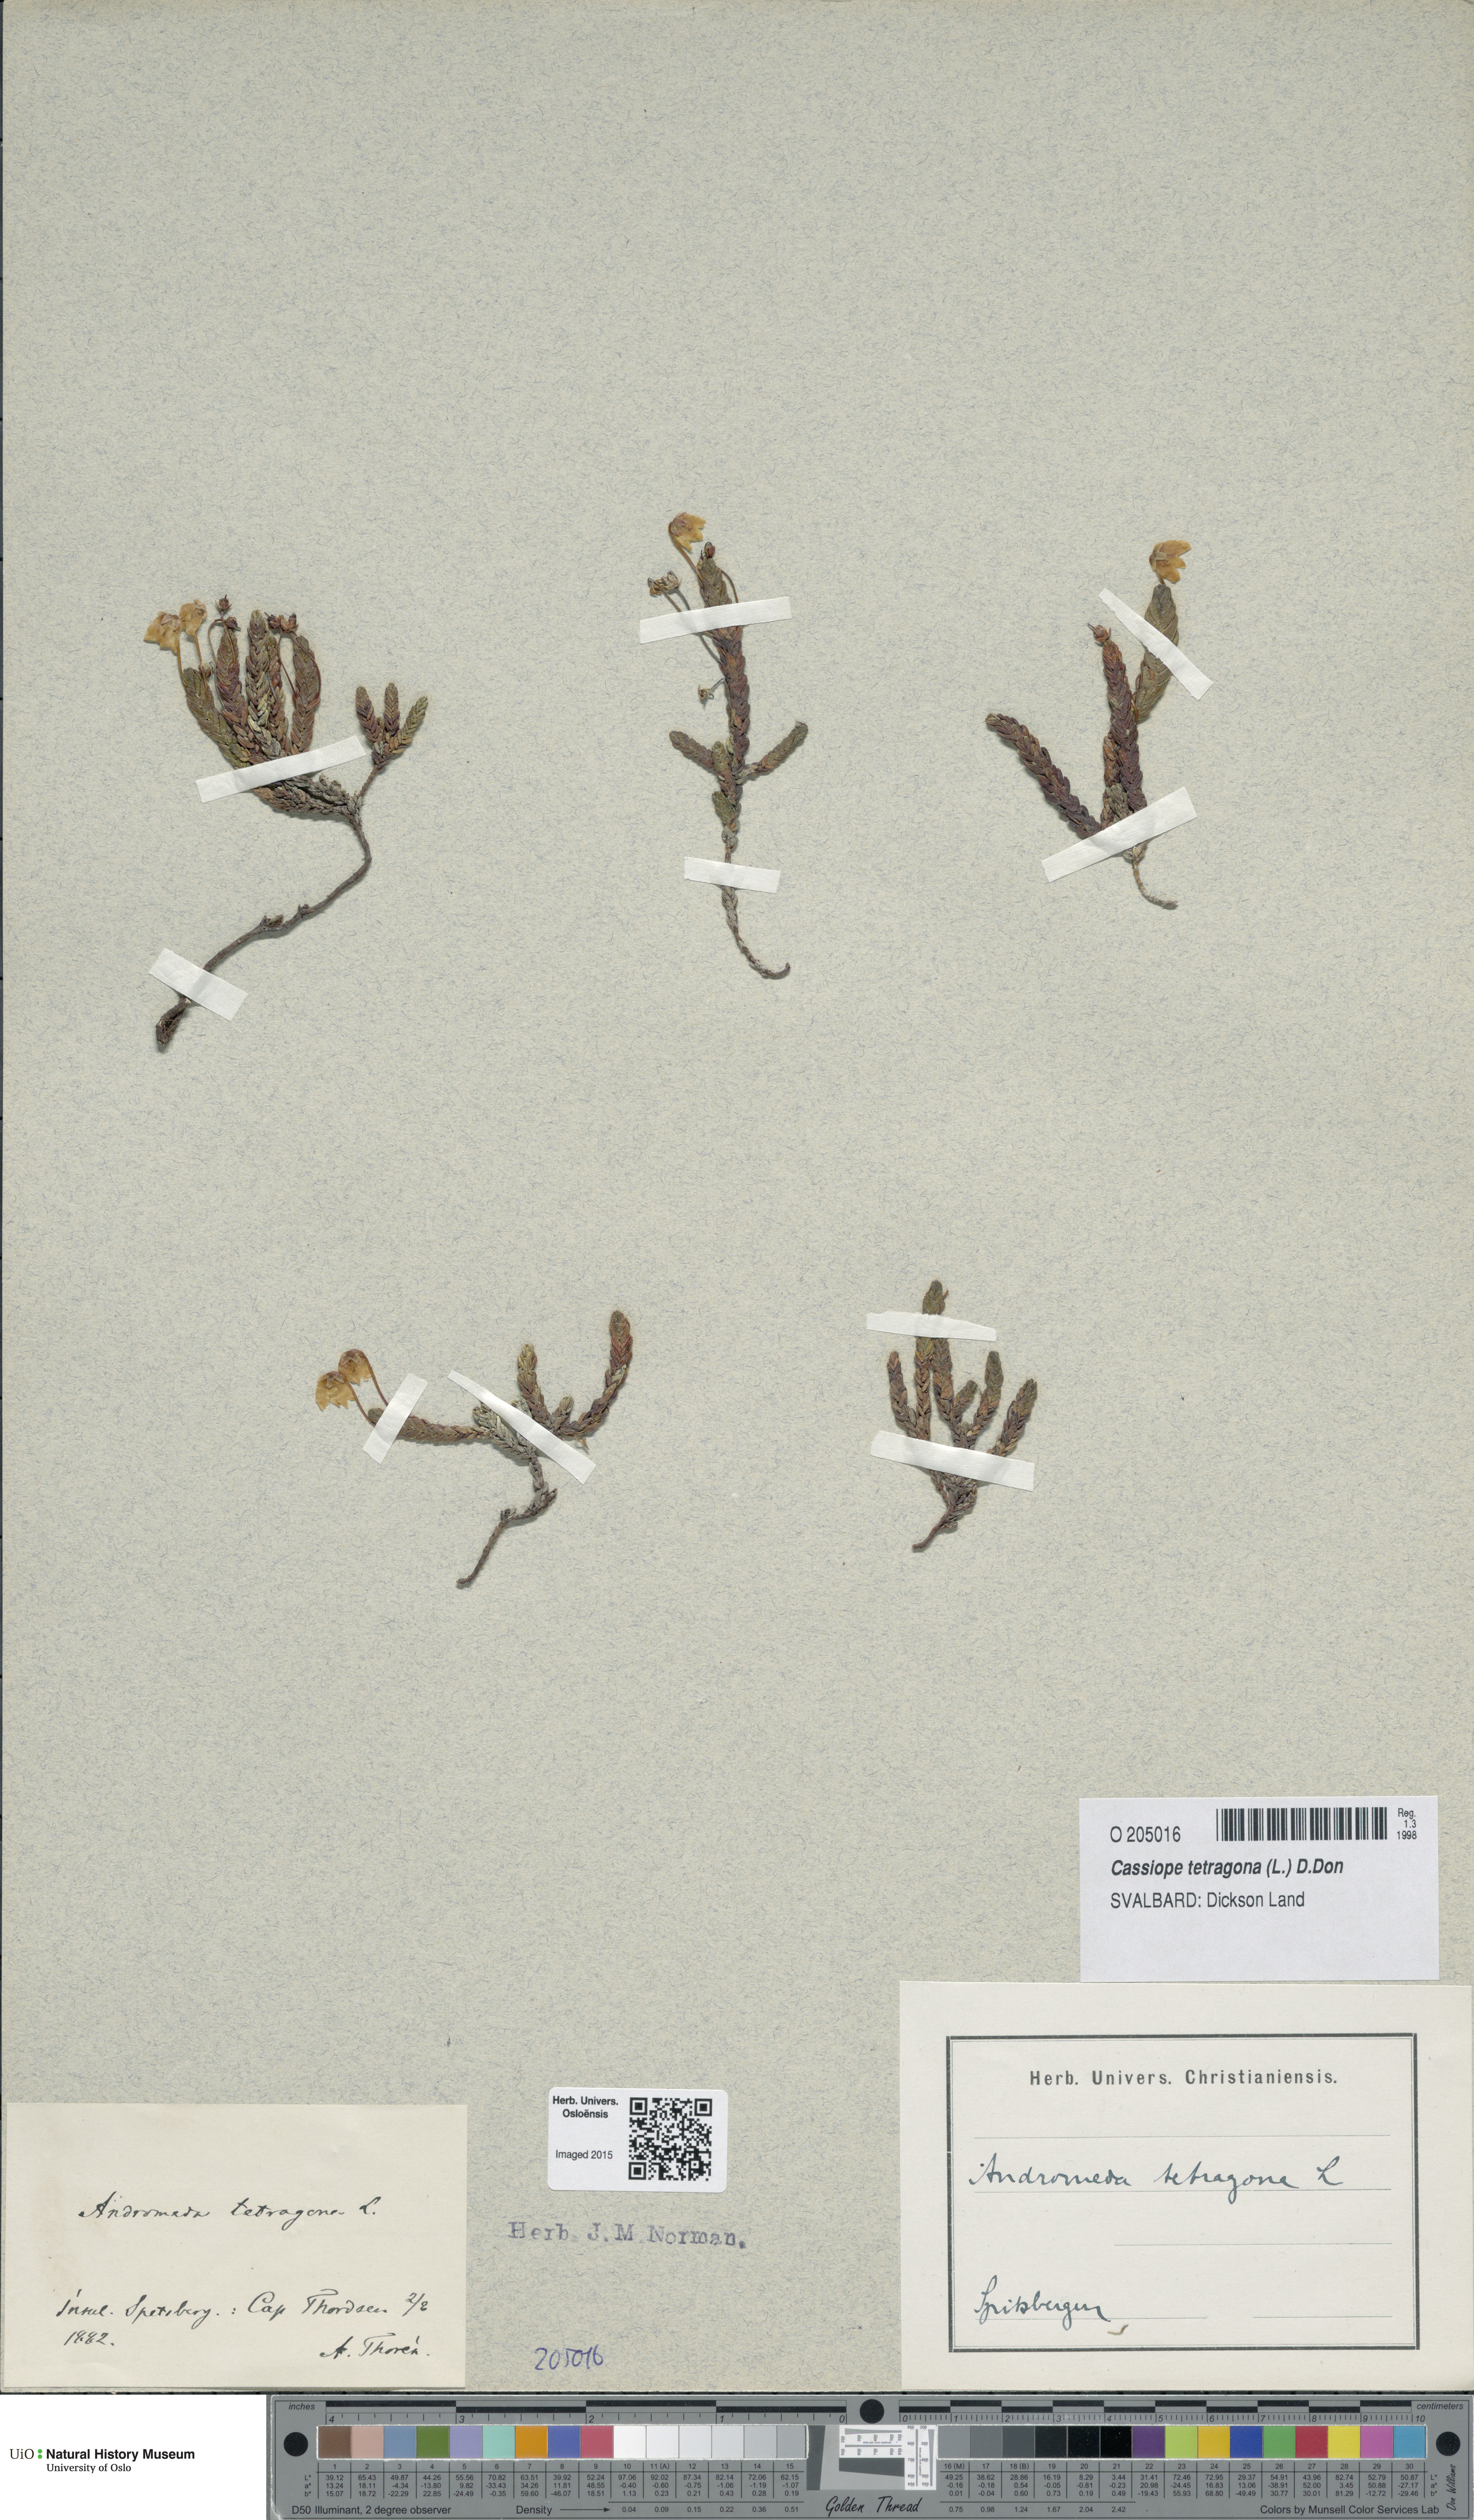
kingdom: Plantae
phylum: Tracheophyta
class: Magnoliopsida
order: Ericales
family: Ericaceae
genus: Cassiope
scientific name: Cassiope tetragona
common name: Arctic bell heather
